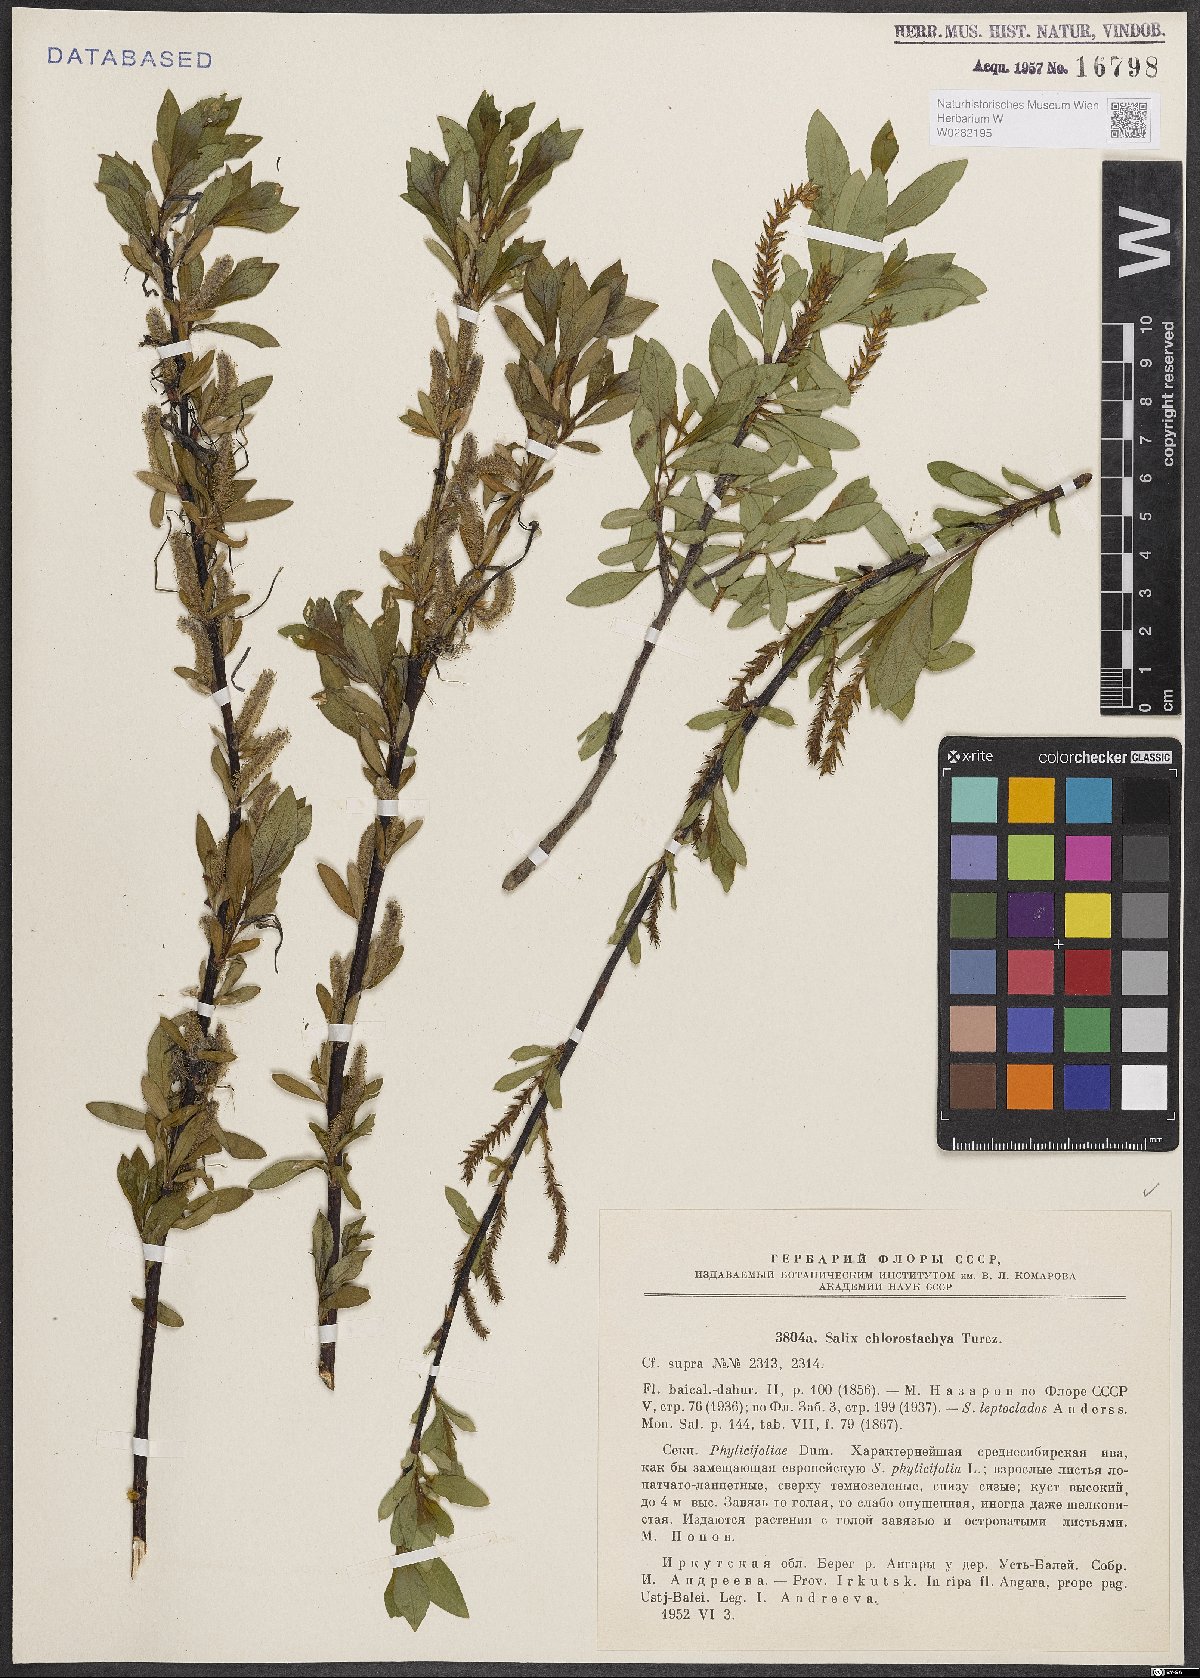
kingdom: Plantae
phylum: Tracheophyta
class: Magnoliopsida
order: Malpighiales
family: Salicaceae
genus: Salix
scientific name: Salix rhamnifolia
